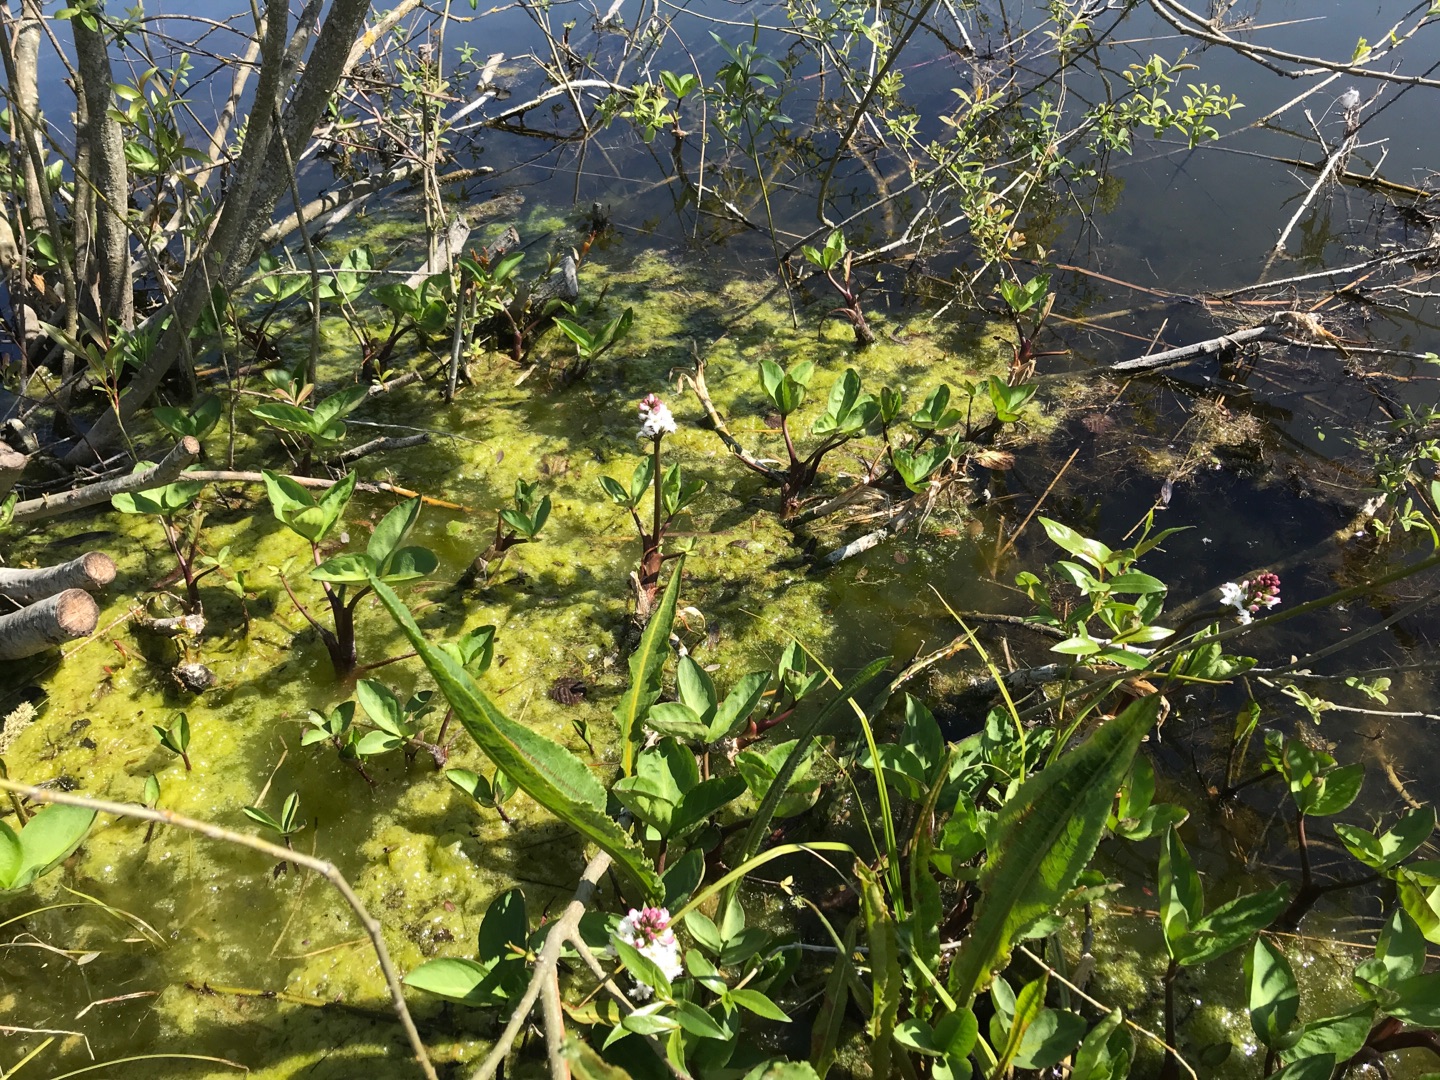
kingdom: Plantae
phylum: Tracheophyta
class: Magnoliopsida
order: Asterales
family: Menyanthaceae
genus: Menyanthes
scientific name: Menyanthes trifoliata
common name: Bukkeblad
